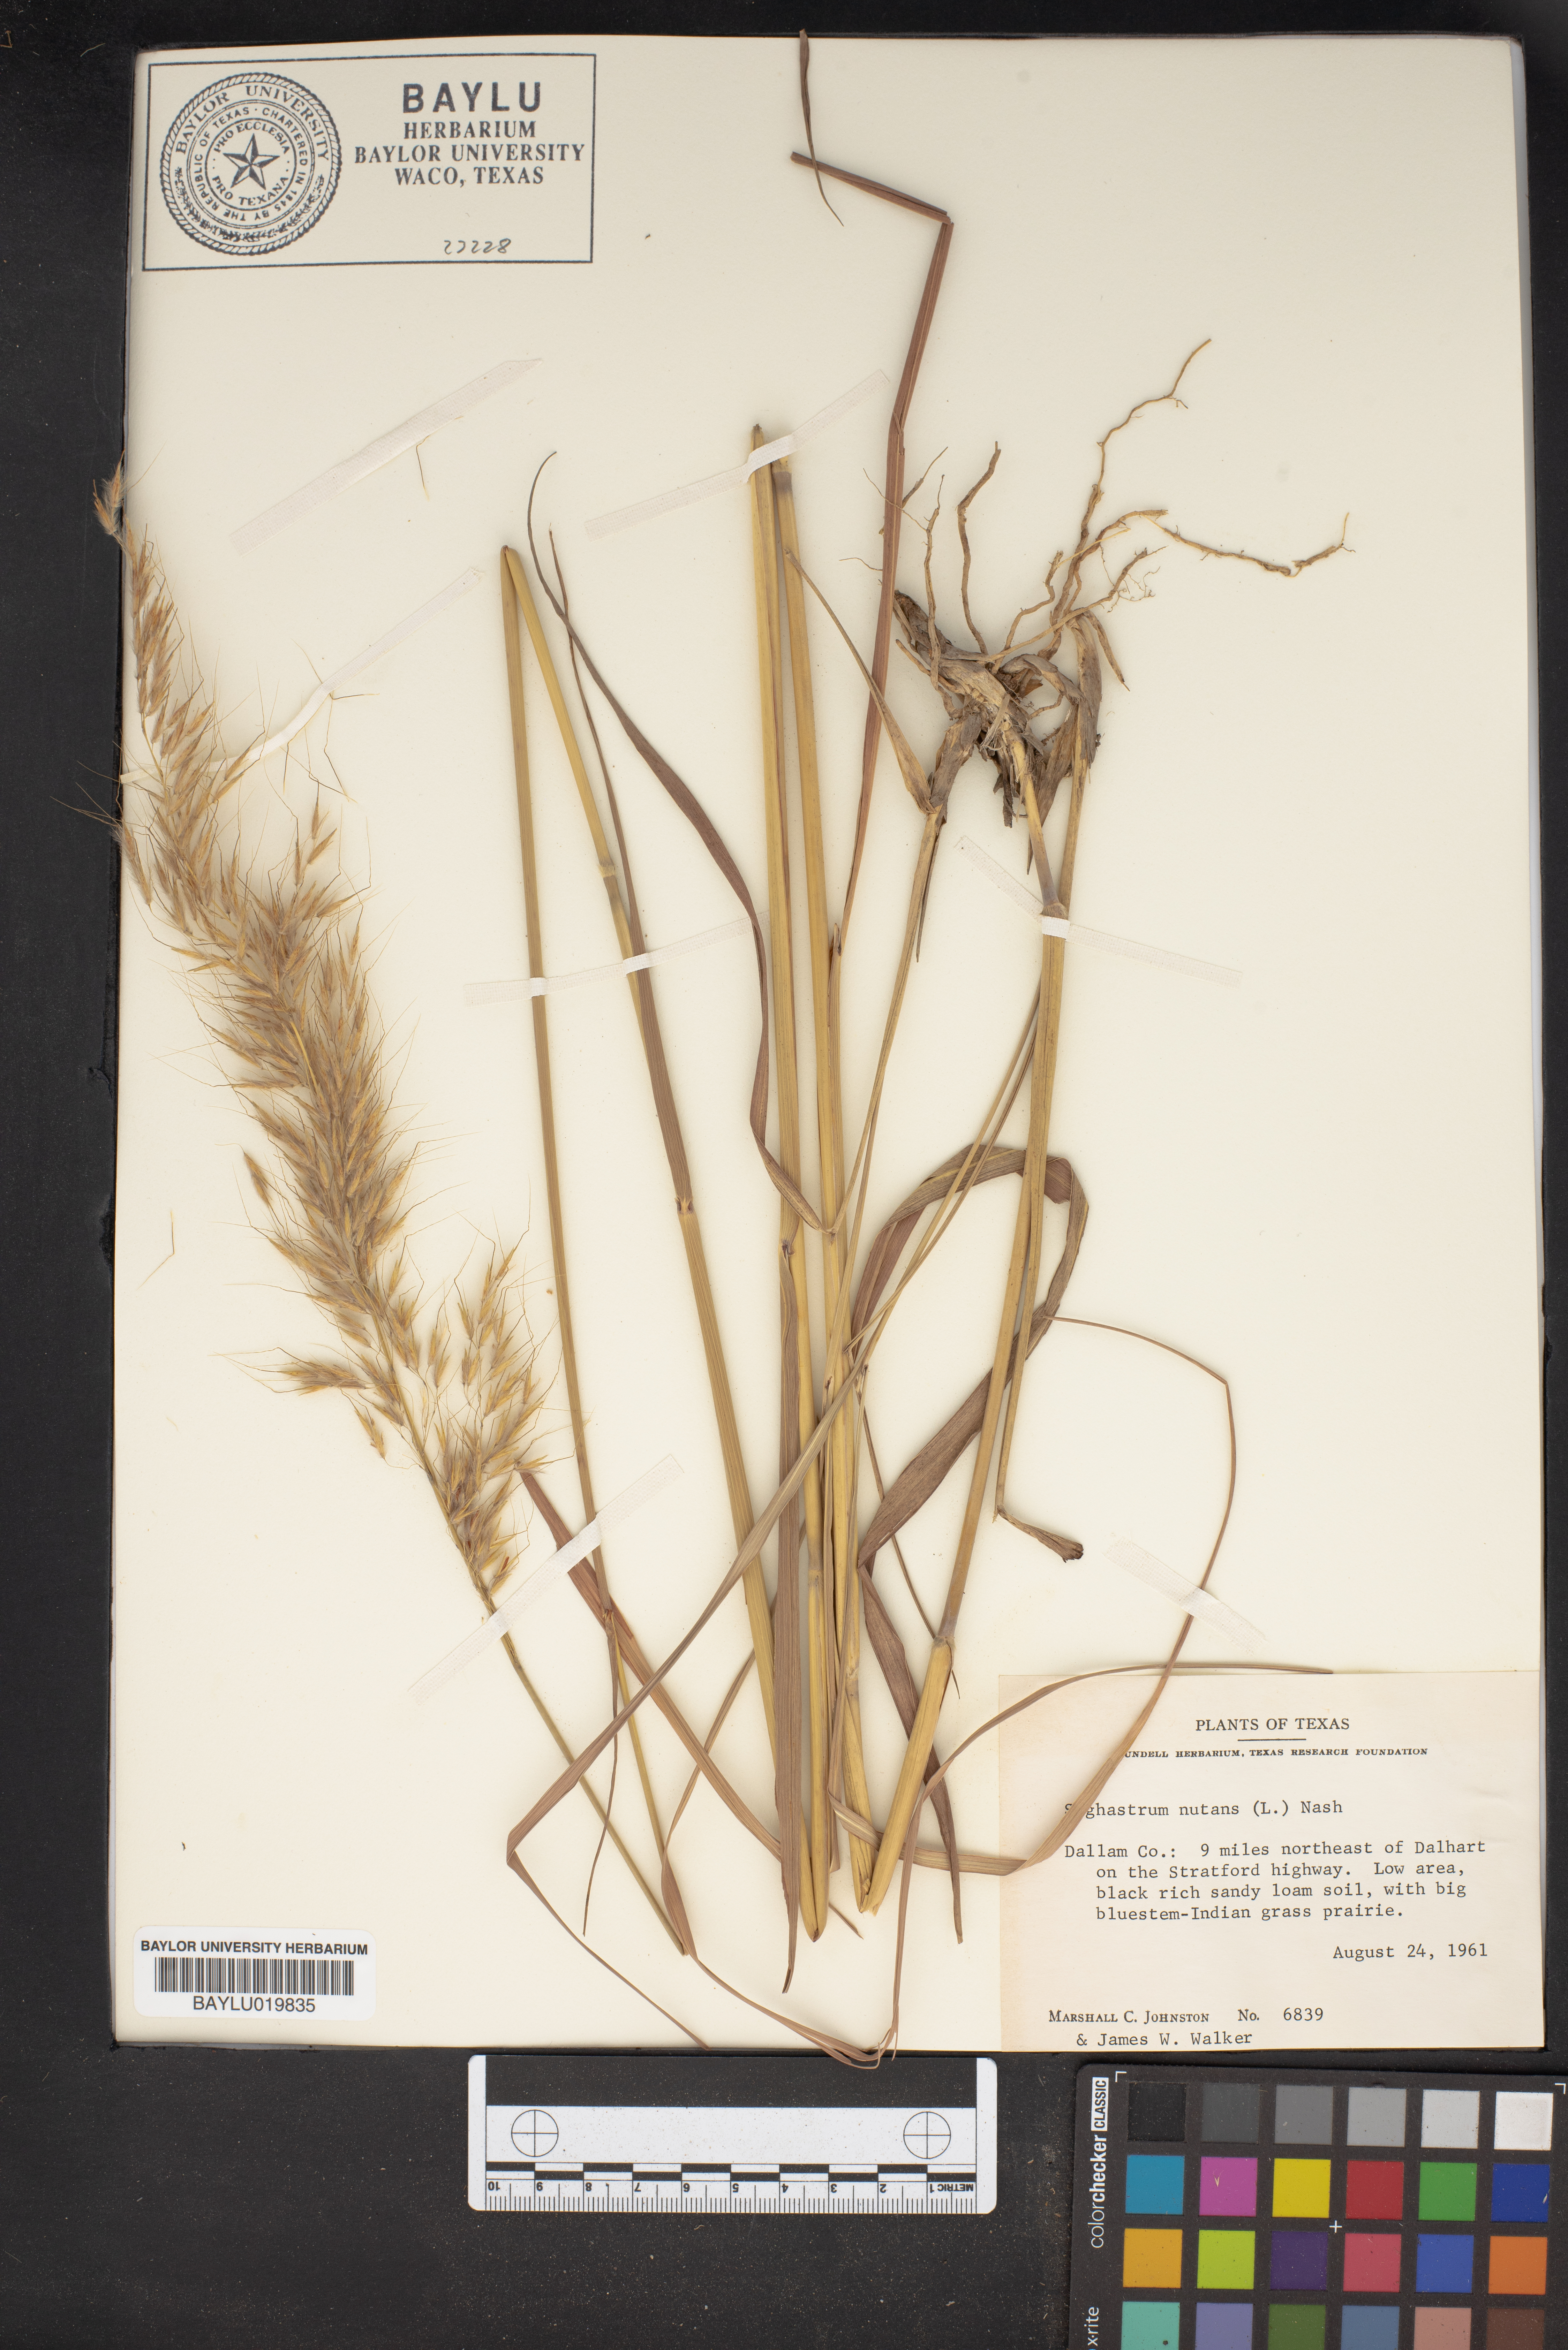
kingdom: Plantae
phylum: Tracheophyta
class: Liliopsida
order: Poales
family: Poaceae
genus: Sorghastrum
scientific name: Sorghastrum nutans
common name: Indian grass
